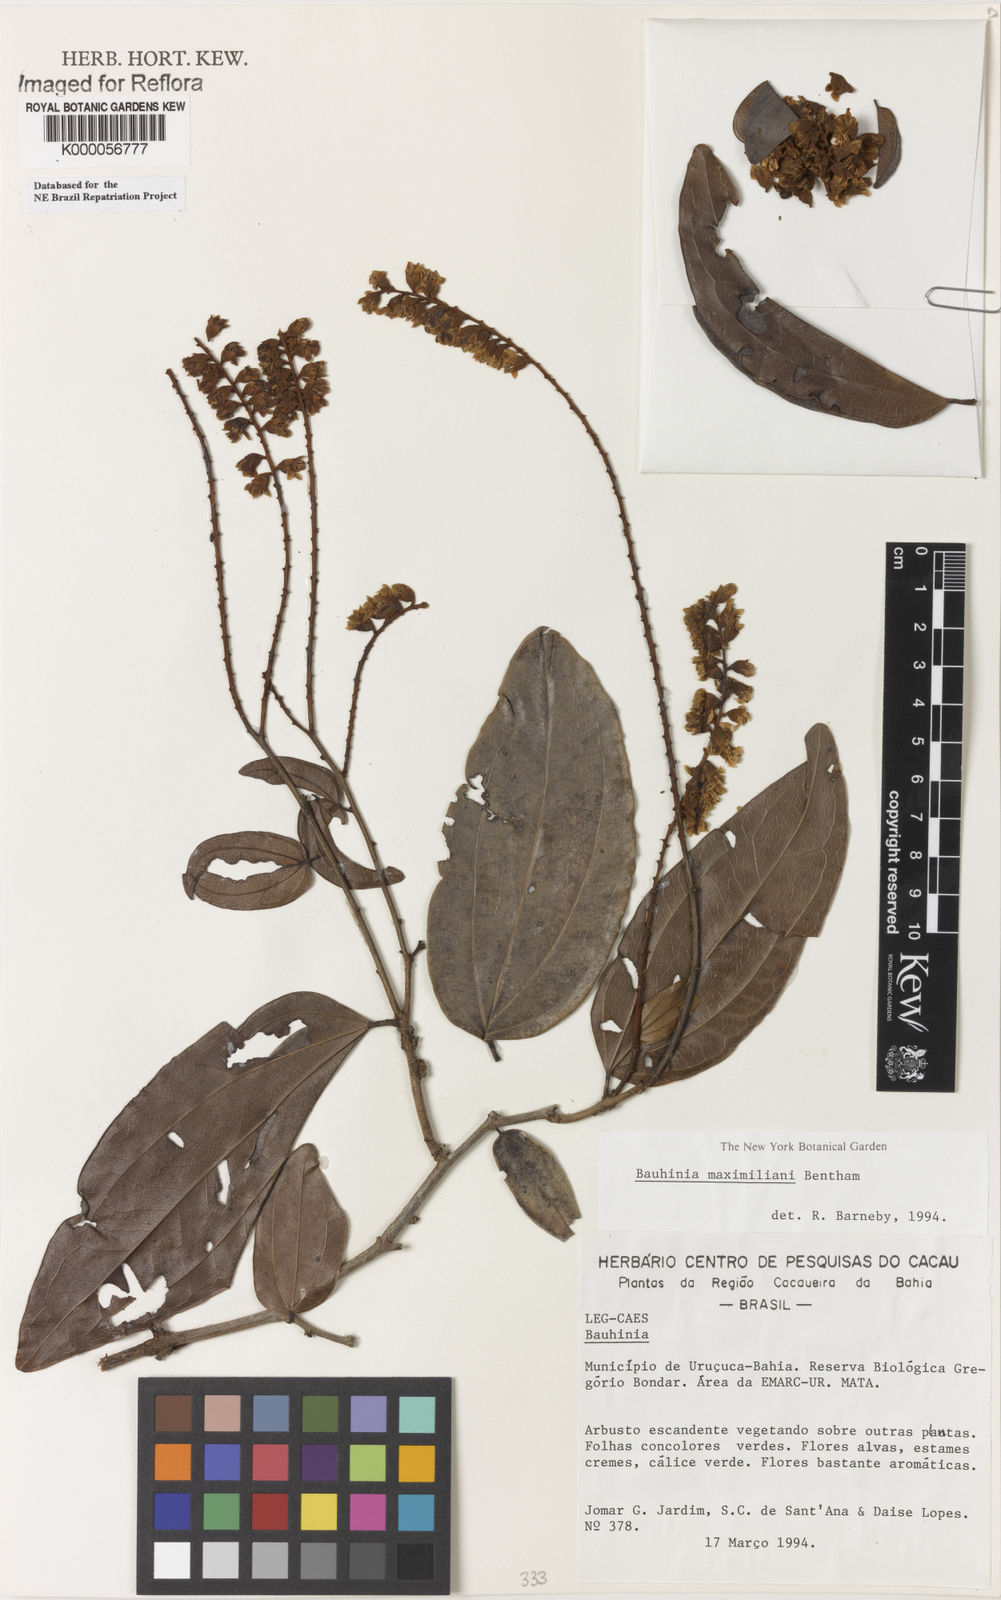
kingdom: Plantae
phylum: Tracheophyta
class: Magnoliopsida
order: Fabales
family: Fabaceae
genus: Schnella
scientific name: Schnella maximiliani
